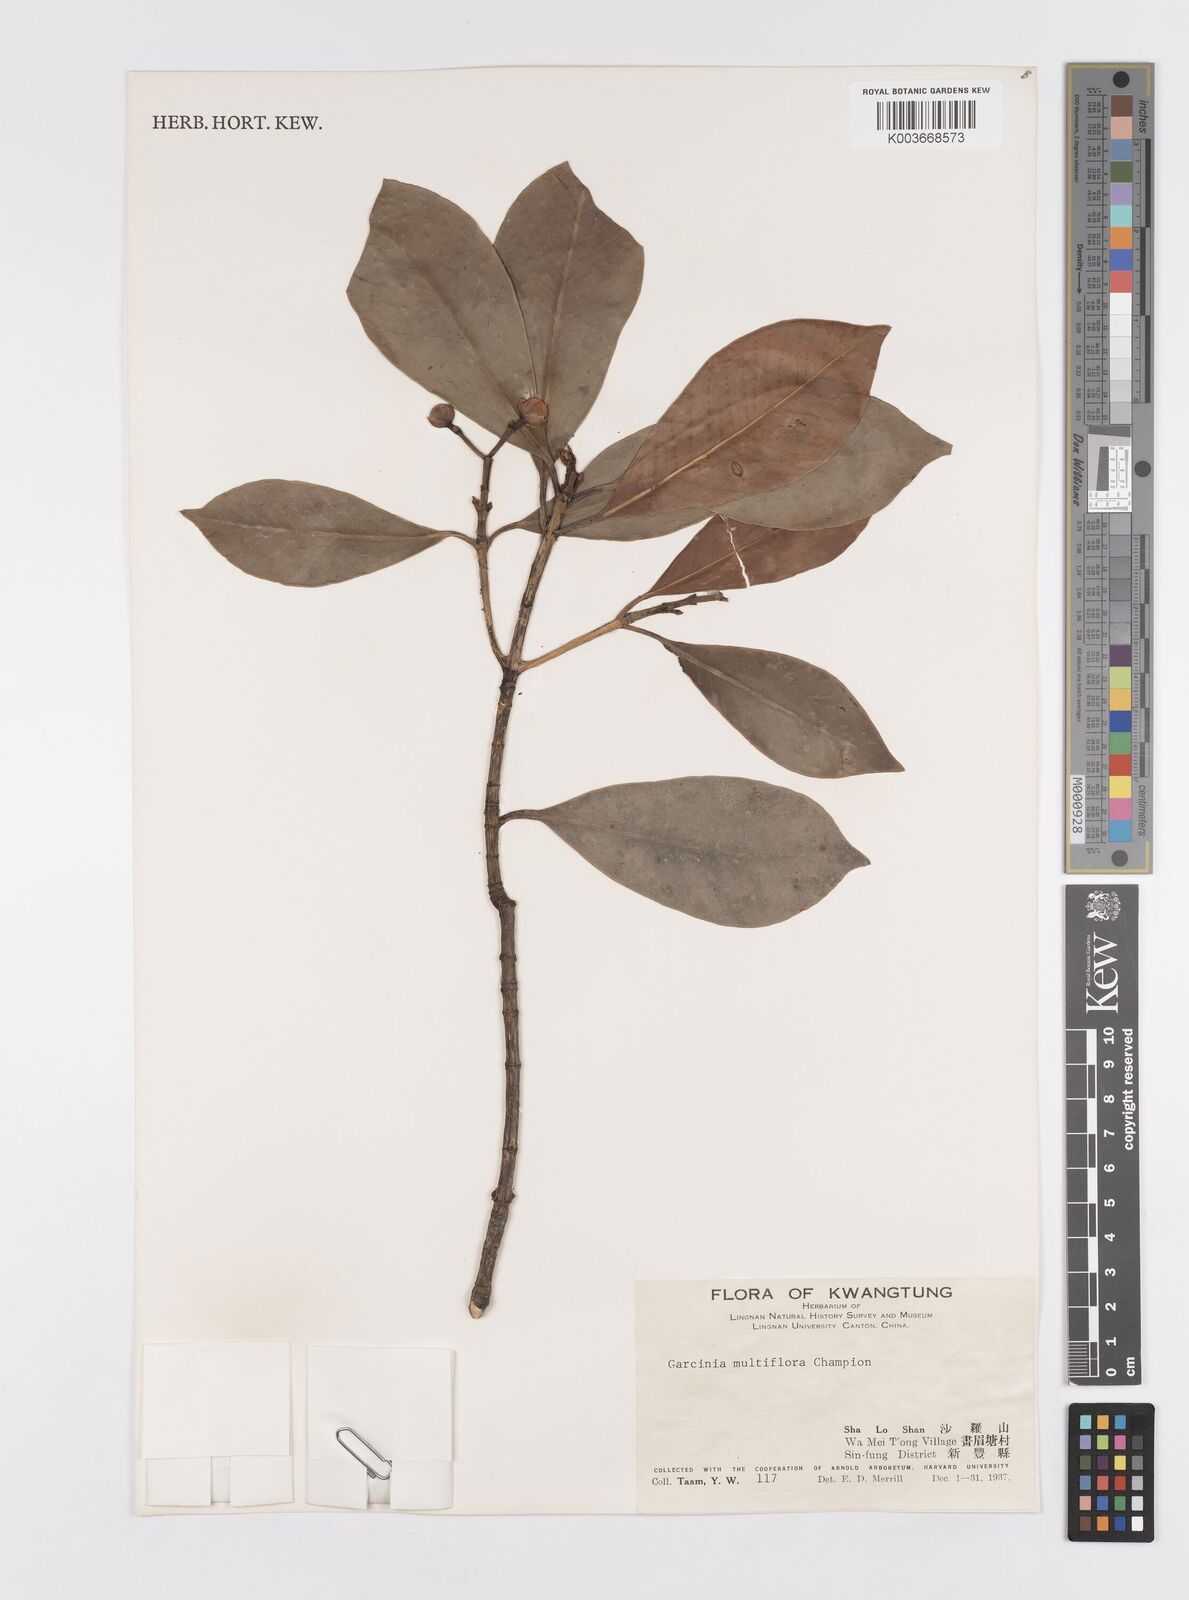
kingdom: Plantae
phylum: Tracheophyta
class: Magnoliopsida
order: Malpighiales
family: Clusiaceae
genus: Garcinia
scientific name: Garcinia multiflora
